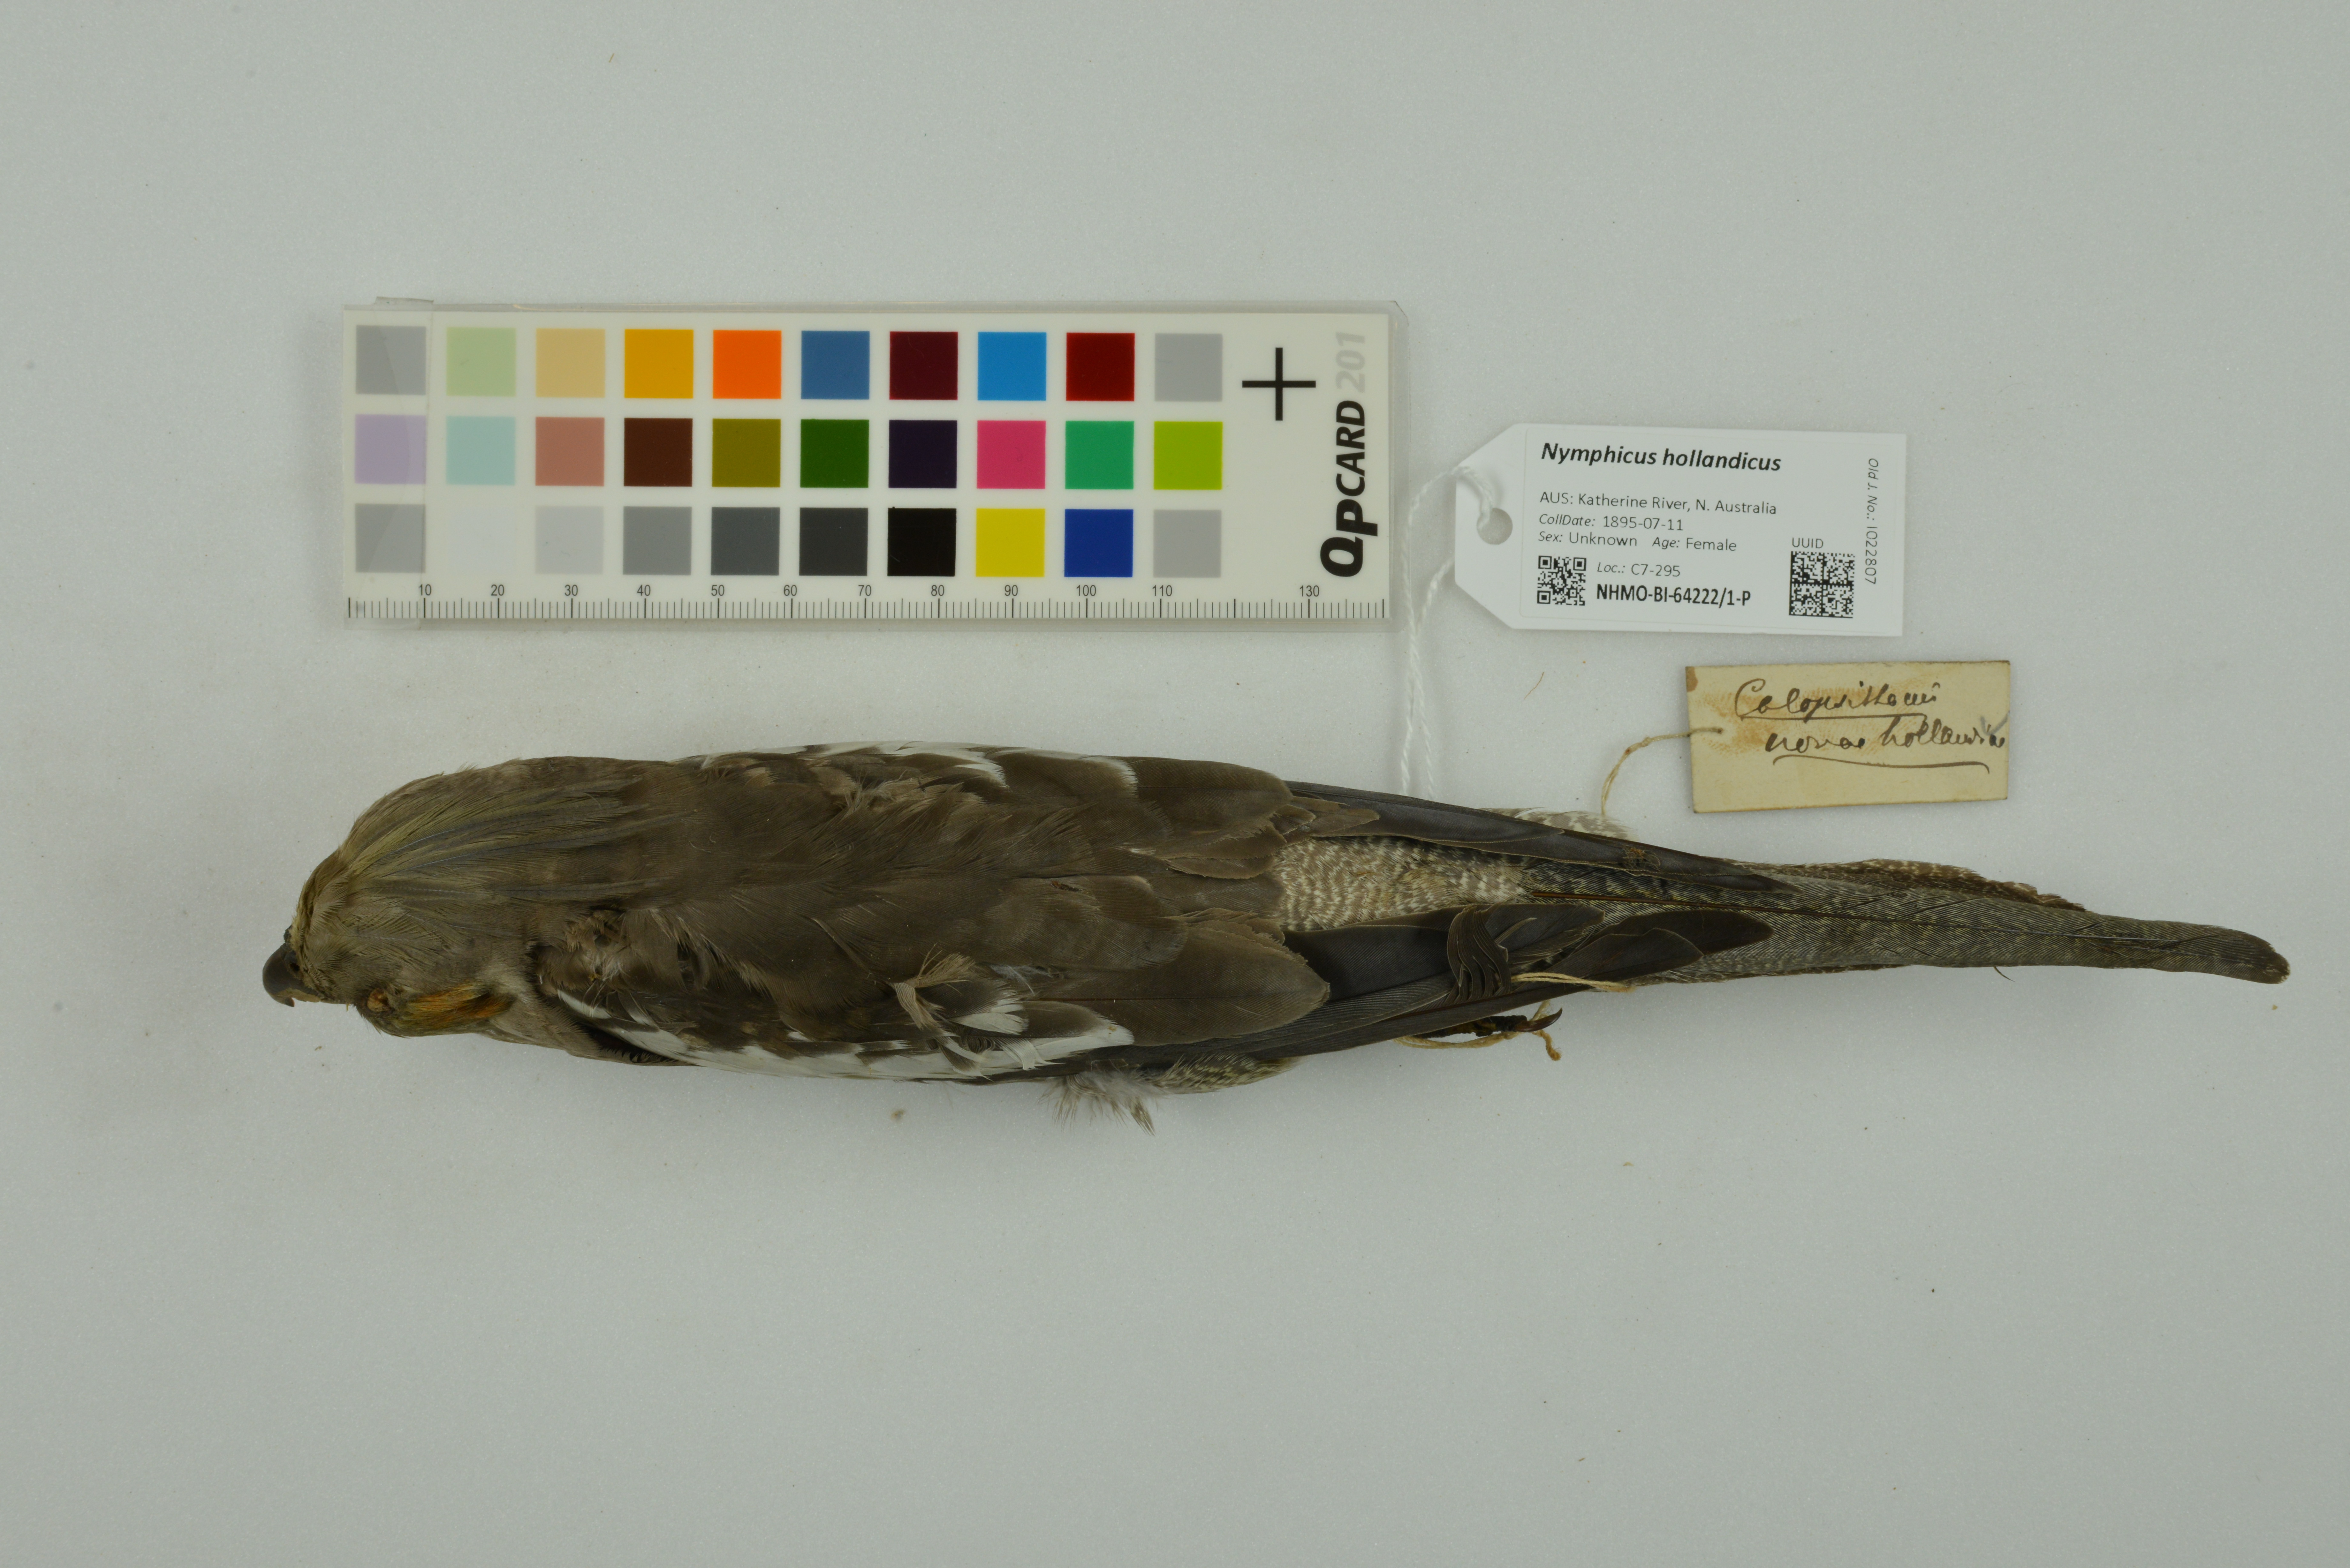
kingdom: Animalia
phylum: Chordata
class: Aves
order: Psittaciformes
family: Psittacidae
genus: Nymphicus
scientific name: Nymphicus hollandicus
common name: Cockatiel
